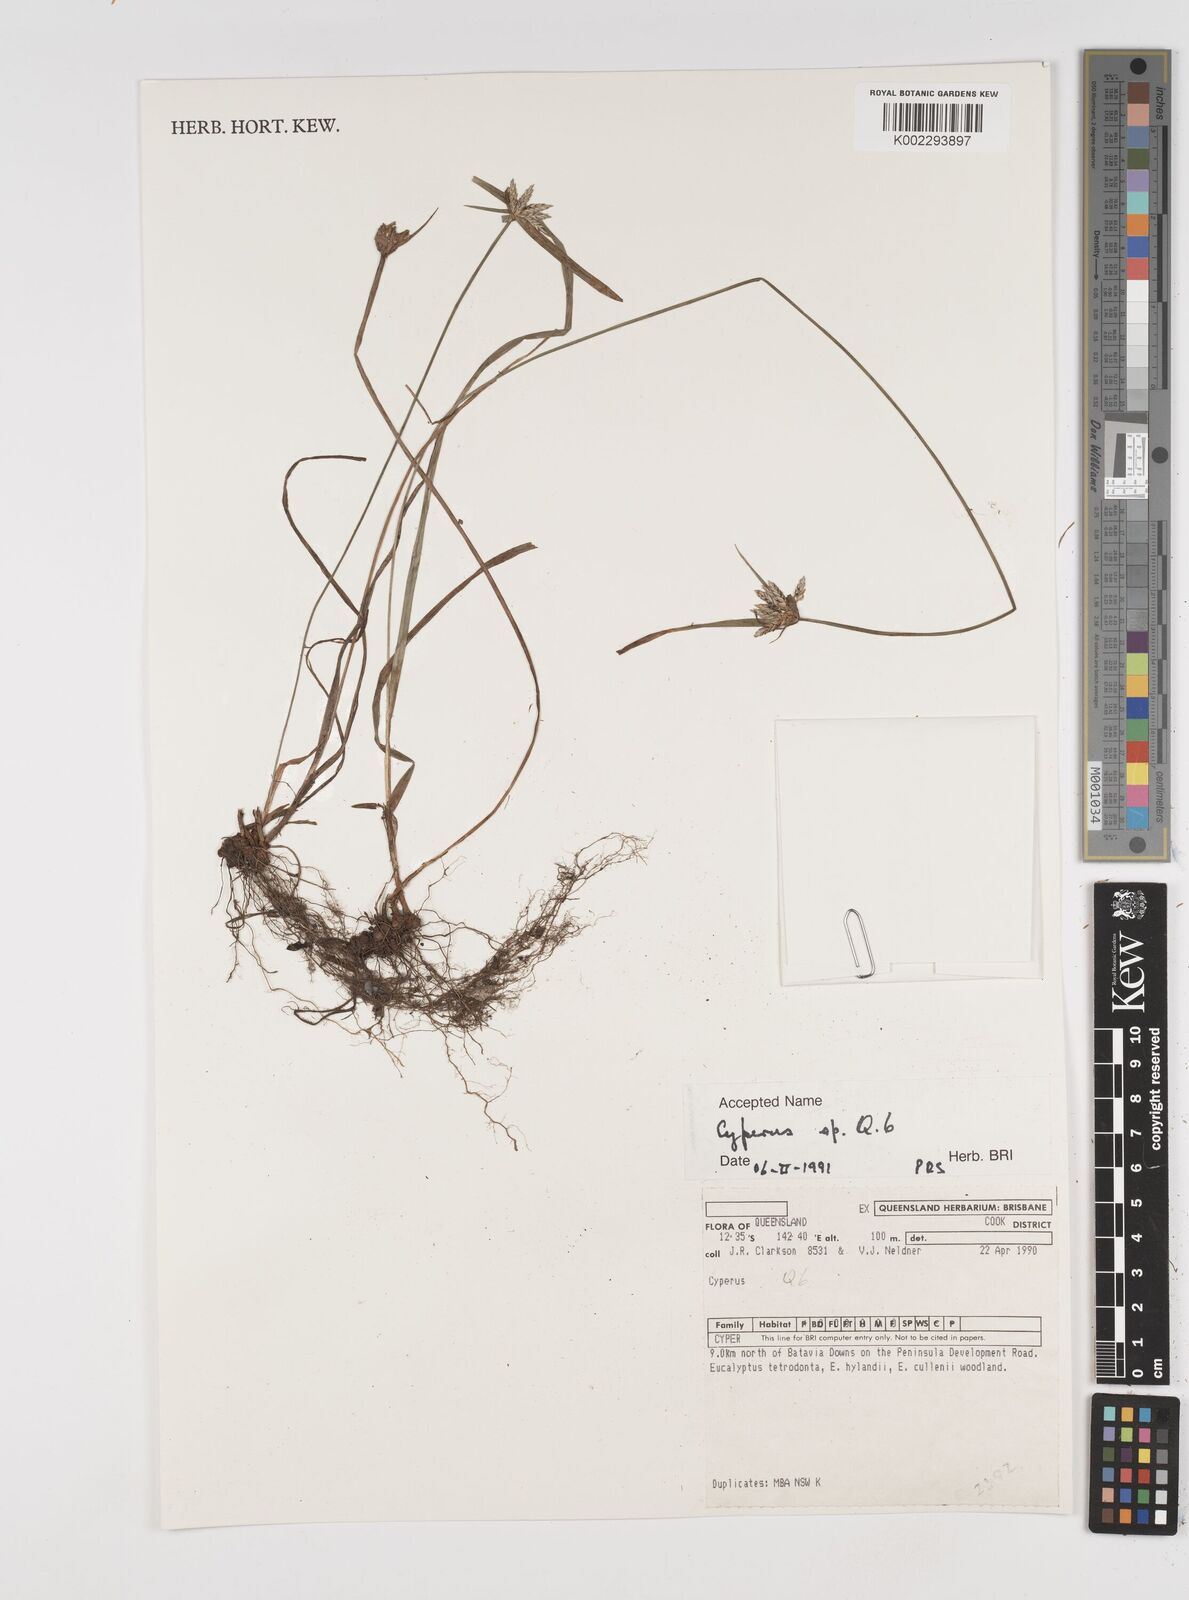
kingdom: Plantae
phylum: Tracheophyta
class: Liliopsida
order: Poales
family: Cyperaceae
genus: Cyperus
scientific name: Cyperus
